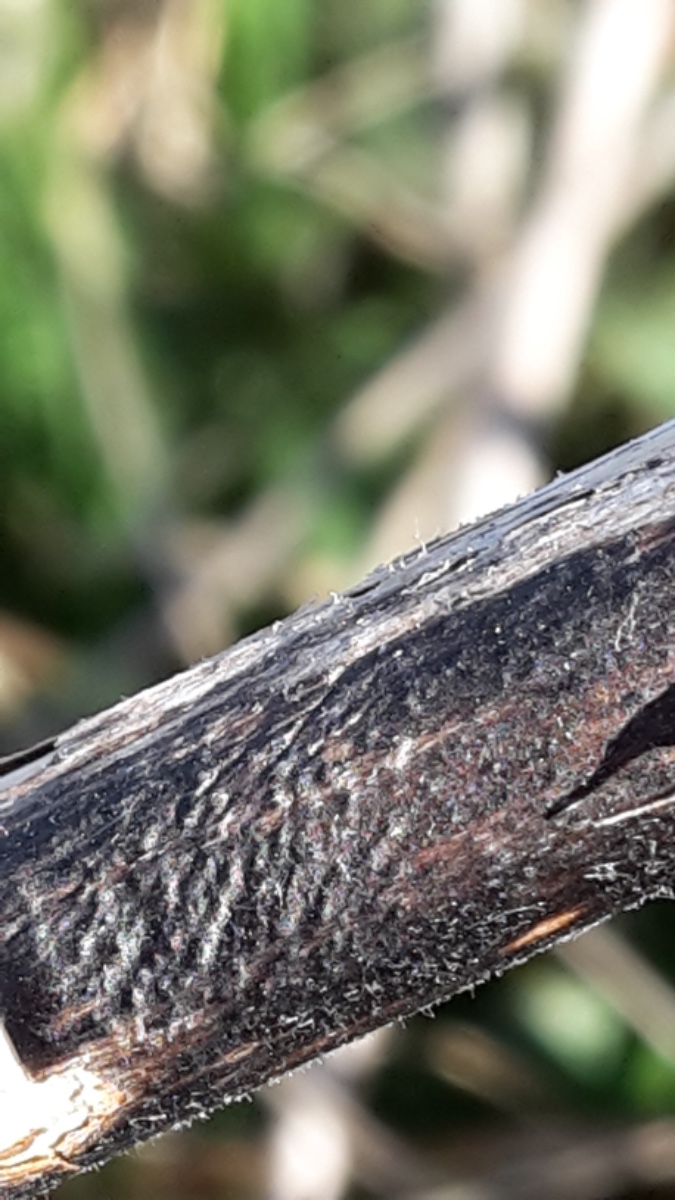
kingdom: Fungi
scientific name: Fungi
